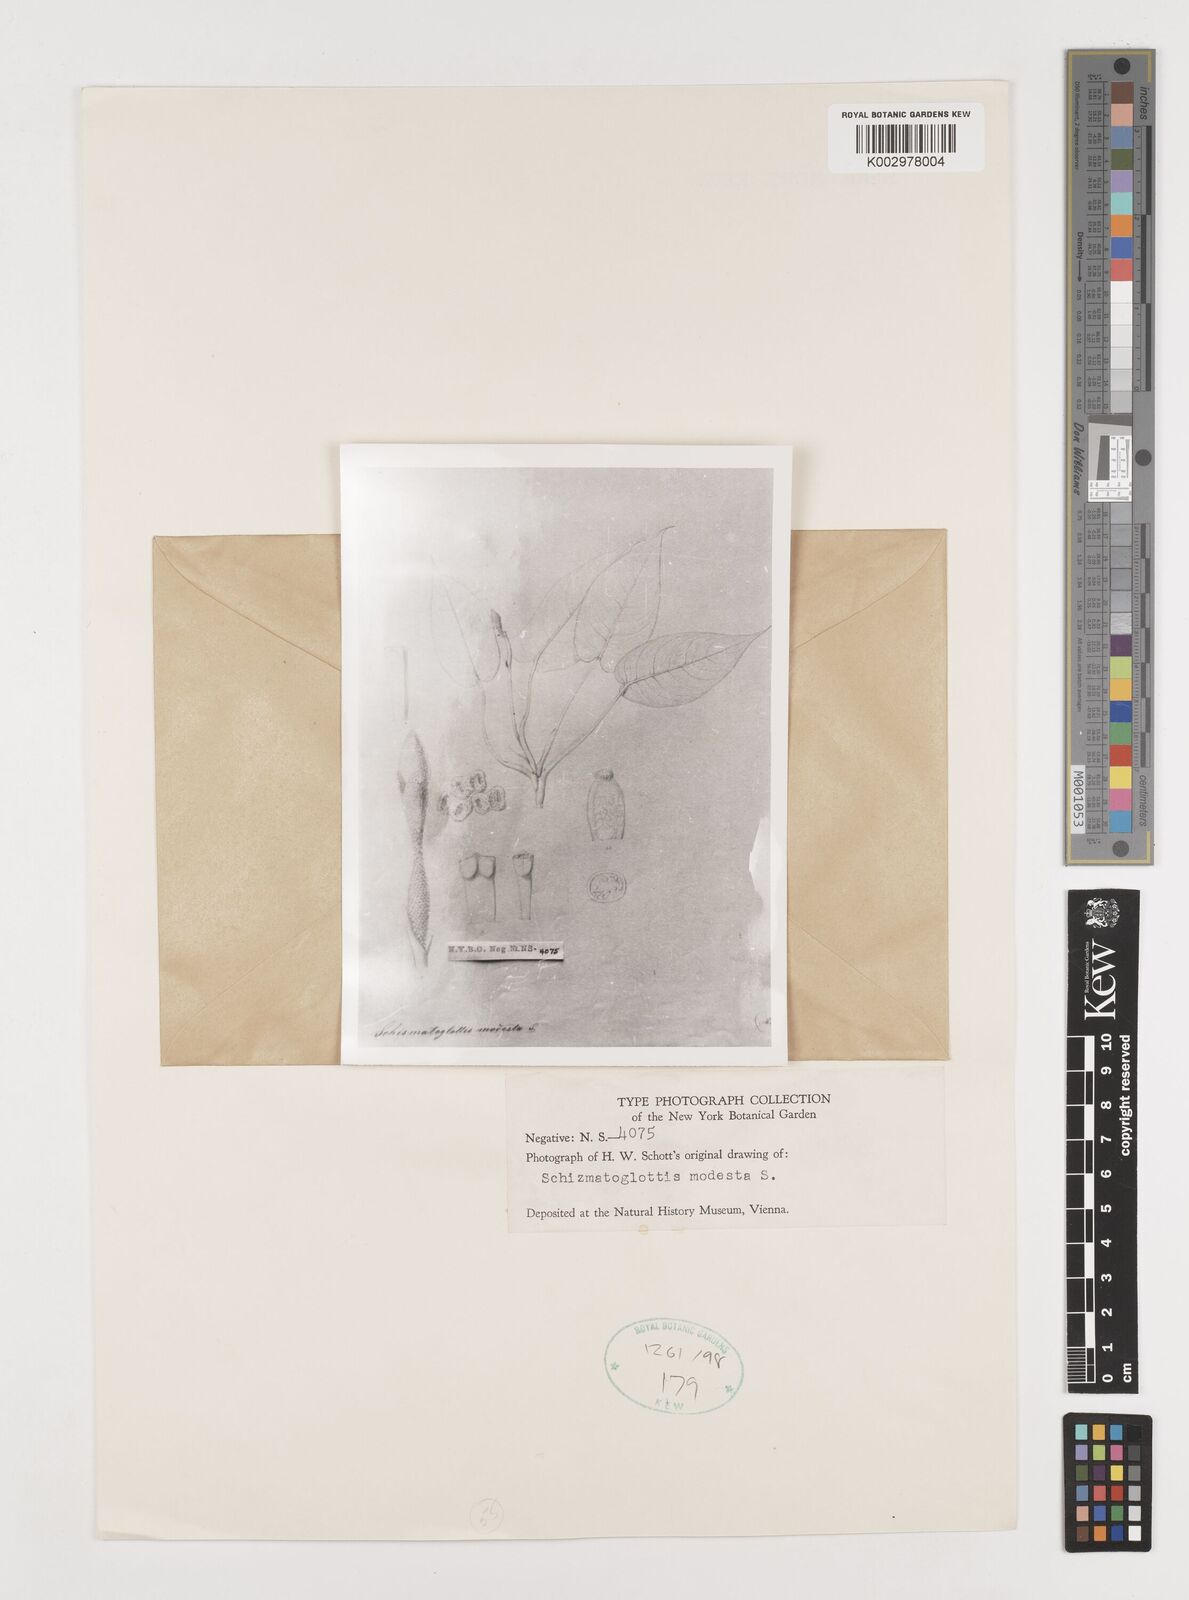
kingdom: Plantae
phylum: Tracheophyta
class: Liliopsida
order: Alismatales
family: Araceae
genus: Schismatoglottis
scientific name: Schismatoglottis modesta
